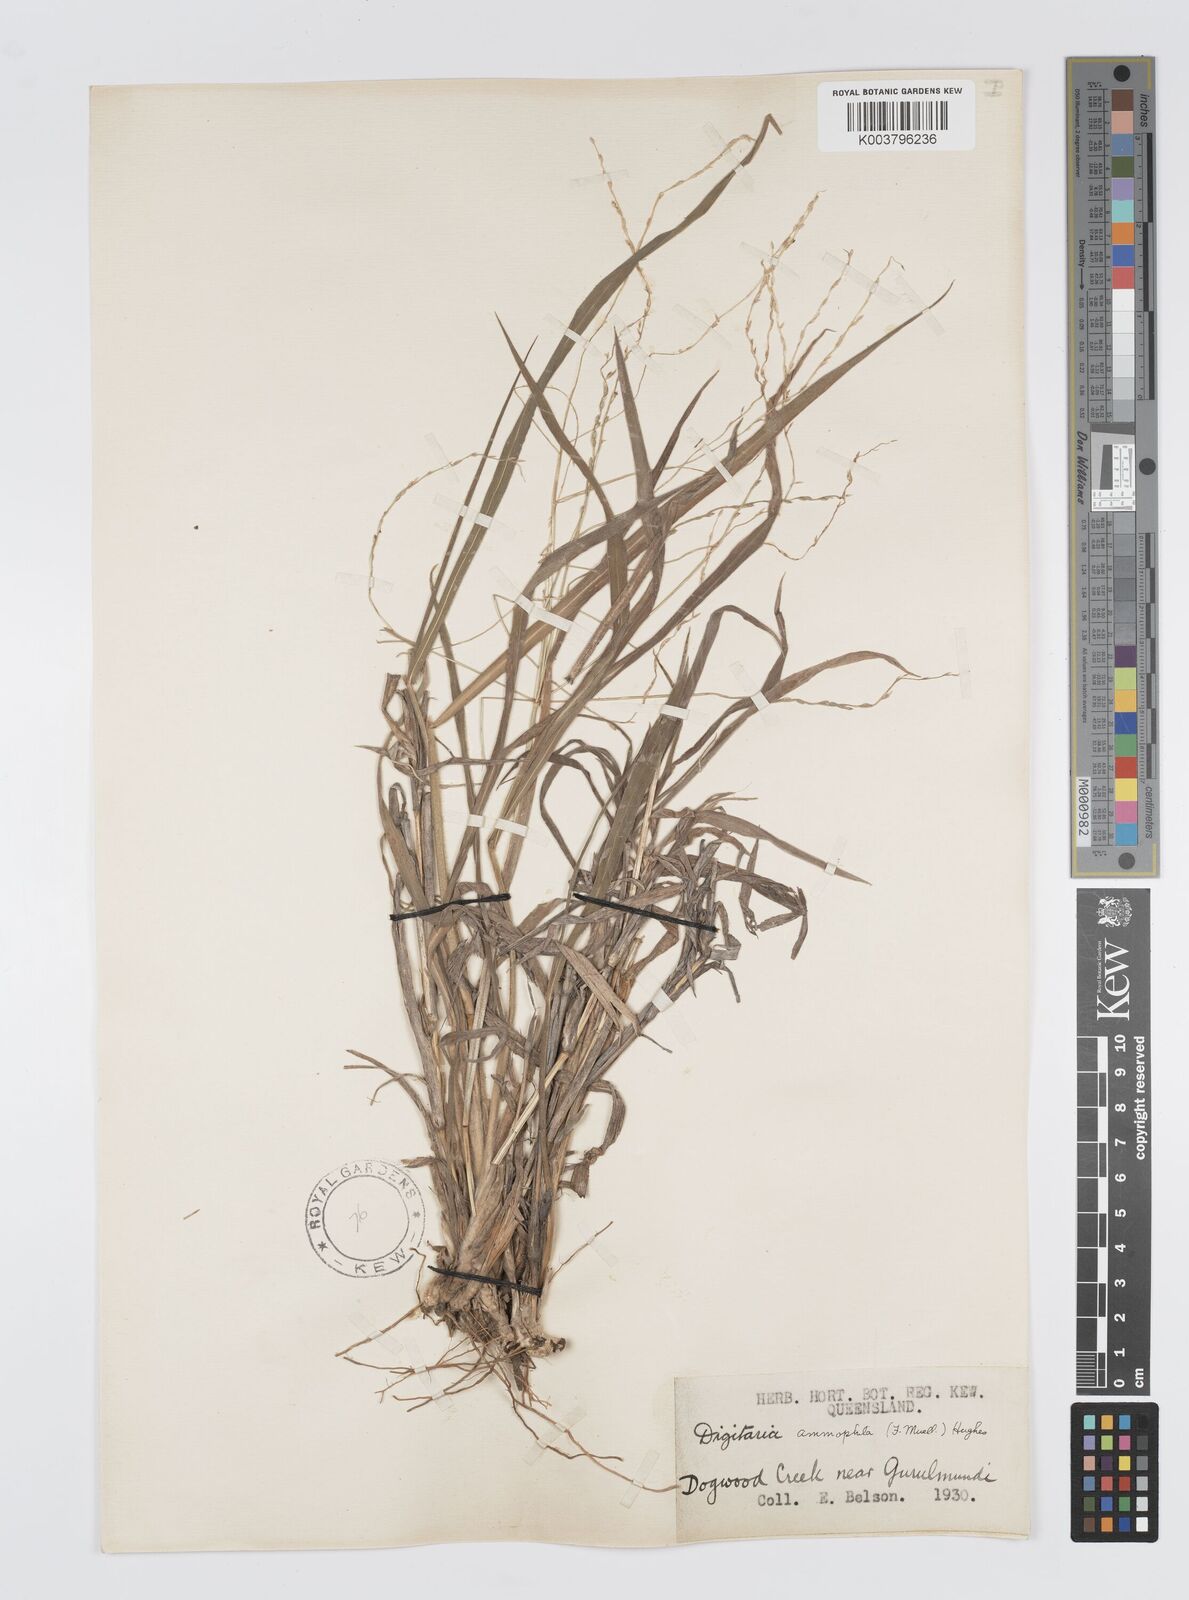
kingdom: Plantae
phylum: Tracheophyta
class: Liliopsida
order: Poales
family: Poaceae
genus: Digitaria
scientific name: Digitaria ammophila
